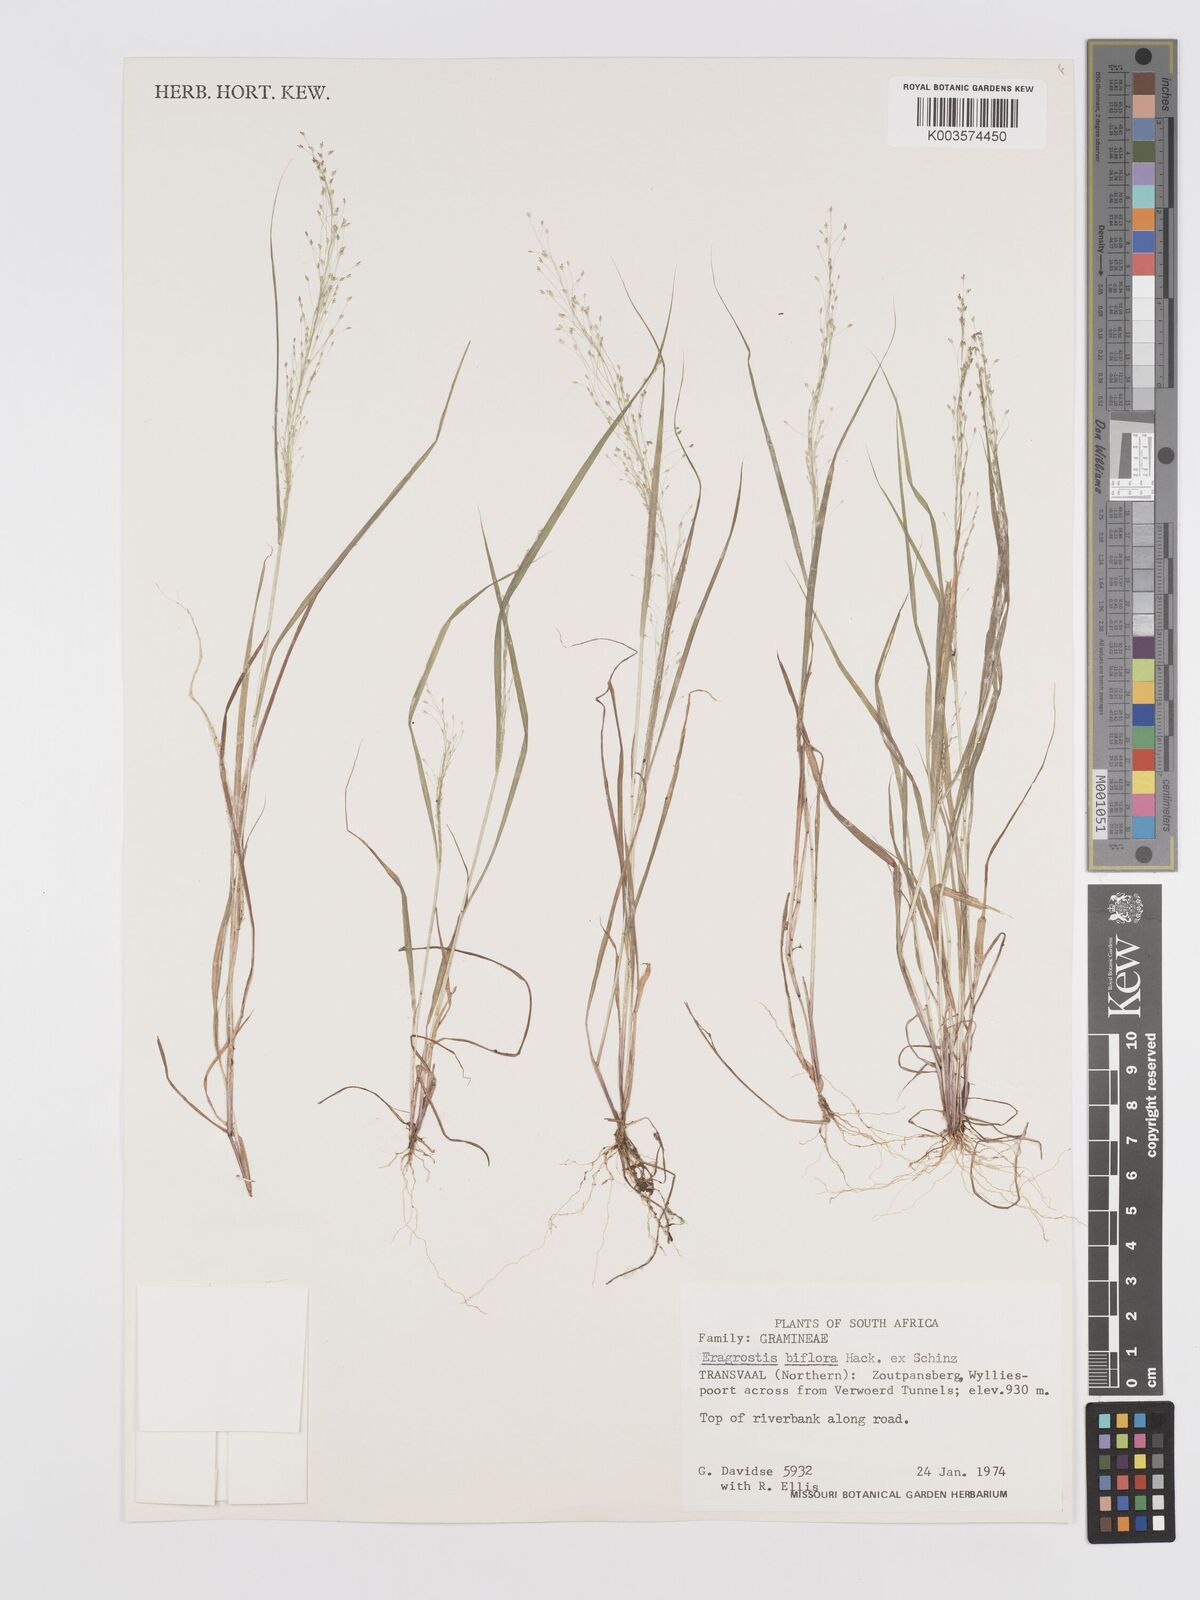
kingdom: Plantae
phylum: Tracheophyta
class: Liliopsida
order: Poales
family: Poaceae
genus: Eragrostis
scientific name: Eragrostis biflora
